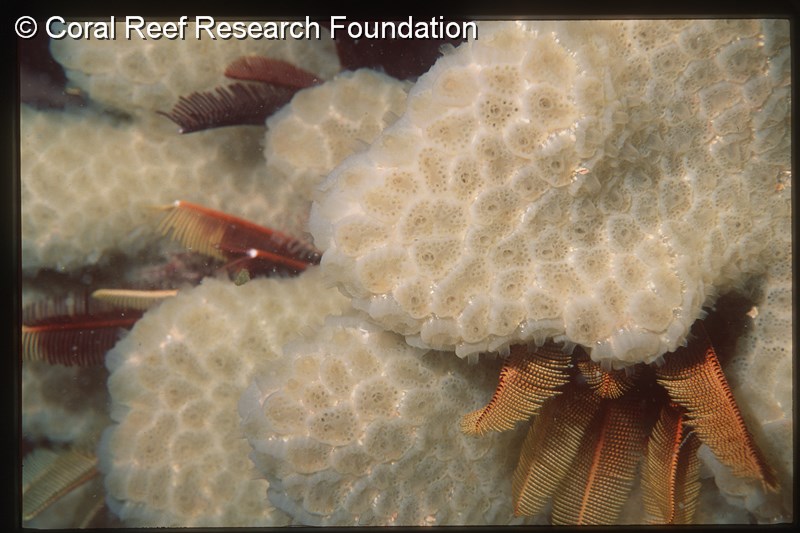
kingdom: Animalia
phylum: Chordata
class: Ascidiacea
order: Aplousobranchia
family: Polyclinidae
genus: Aplidium
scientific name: Aplidium
